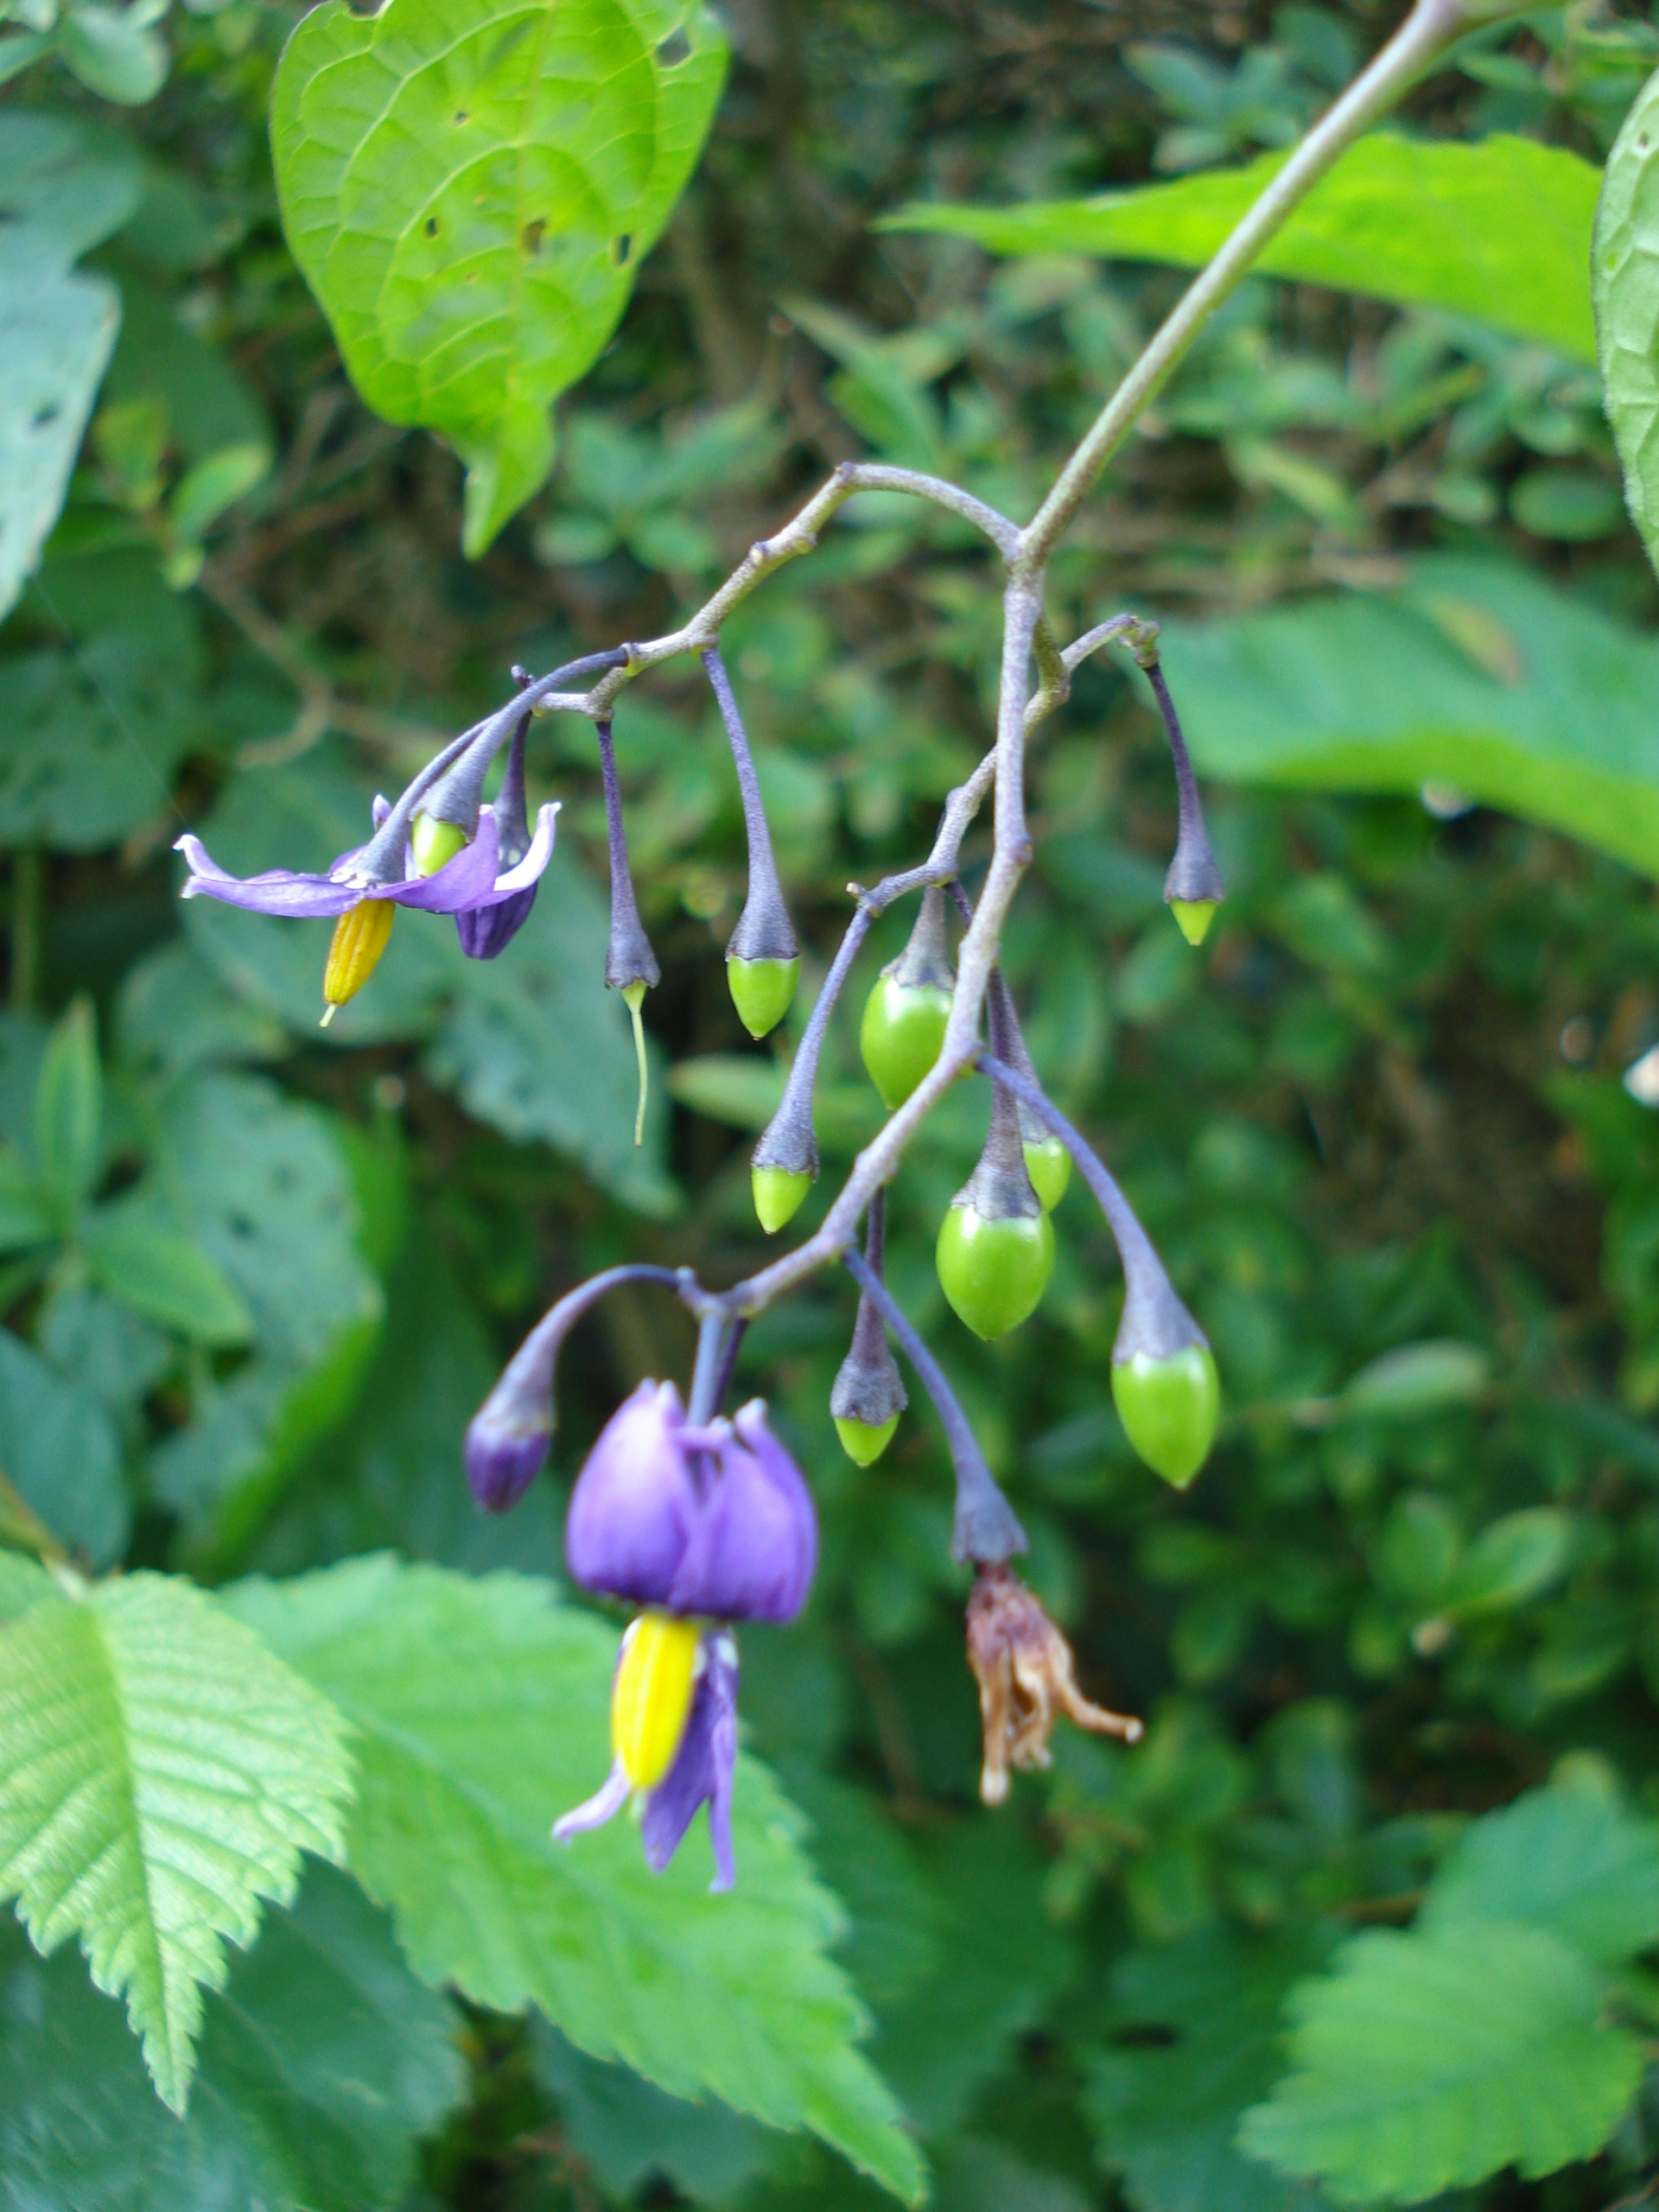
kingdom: Plantae
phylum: Tracheophyta
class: Magnoliopsida
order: Solanales
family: Solanaceae
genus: Solanum
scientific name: Solanum dulcamara
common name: Bittersød natskygge
